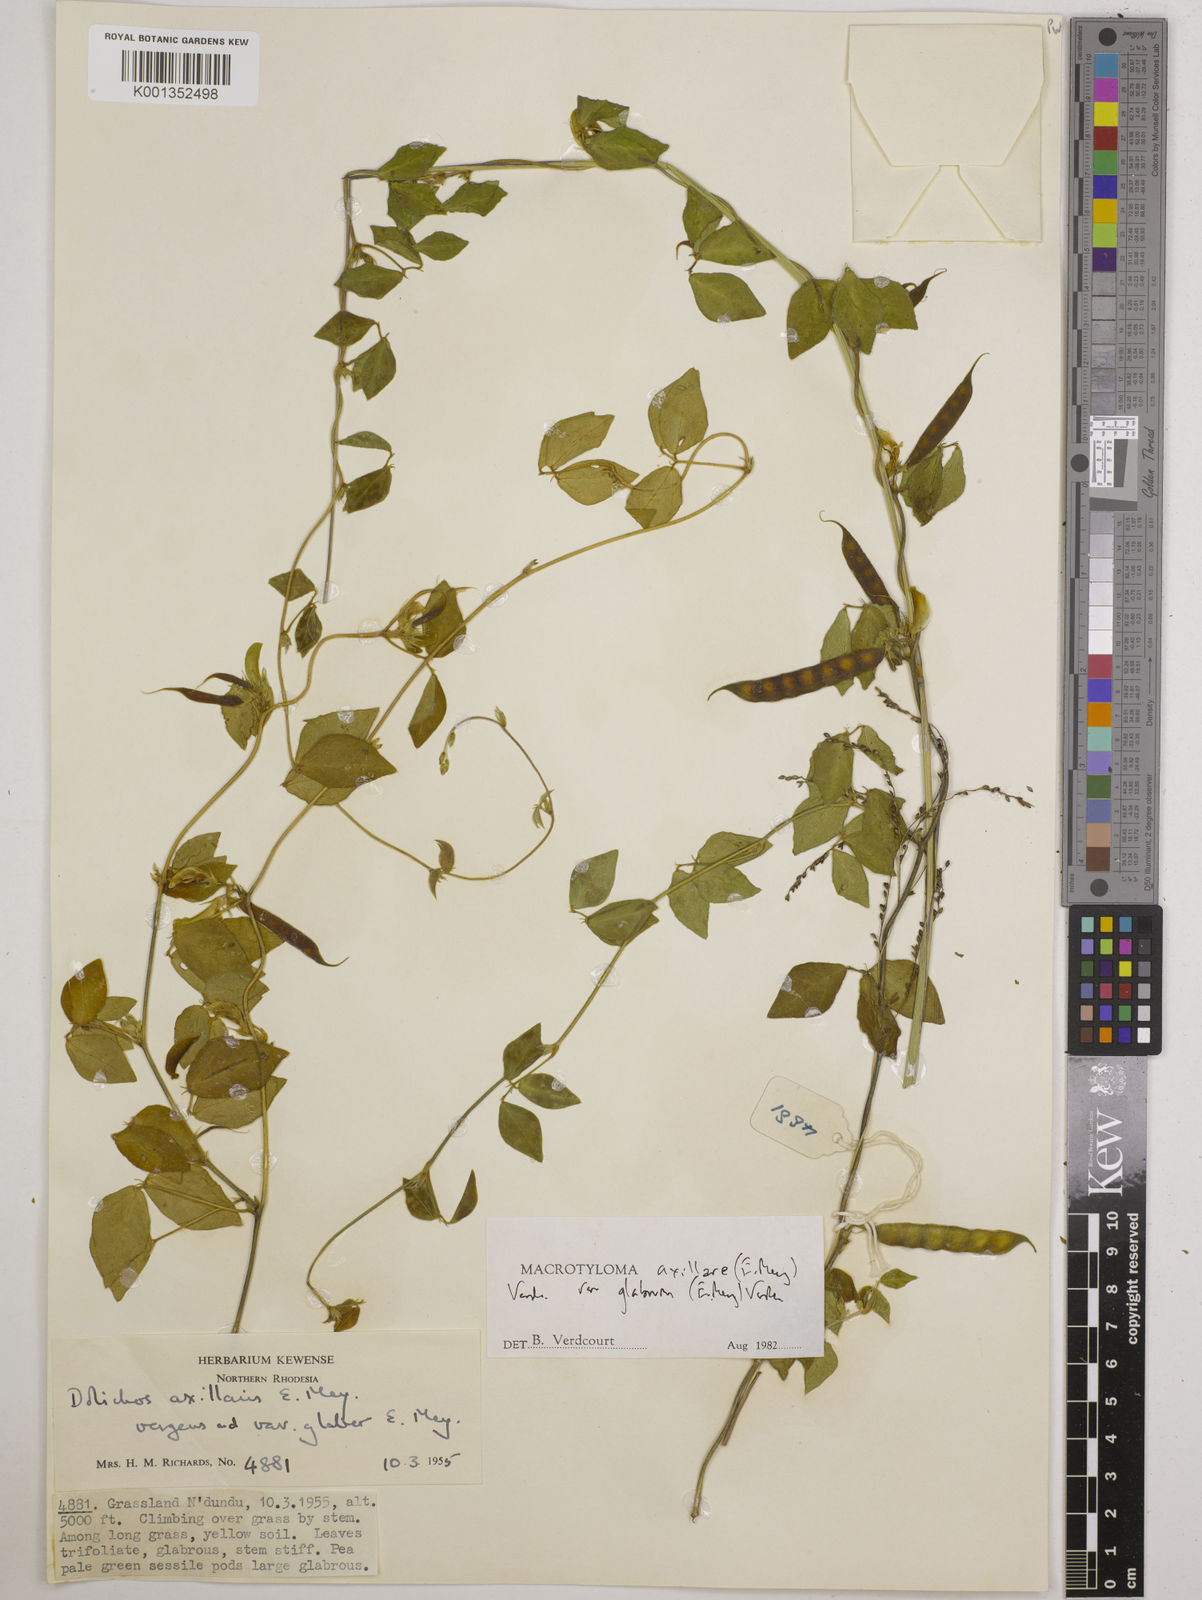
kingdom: Plantae
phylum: Tracheophyta
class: Magnoliopsida
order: Fabales
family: Fabaceae
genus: Macrotyloma
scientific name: Macrotyloma
